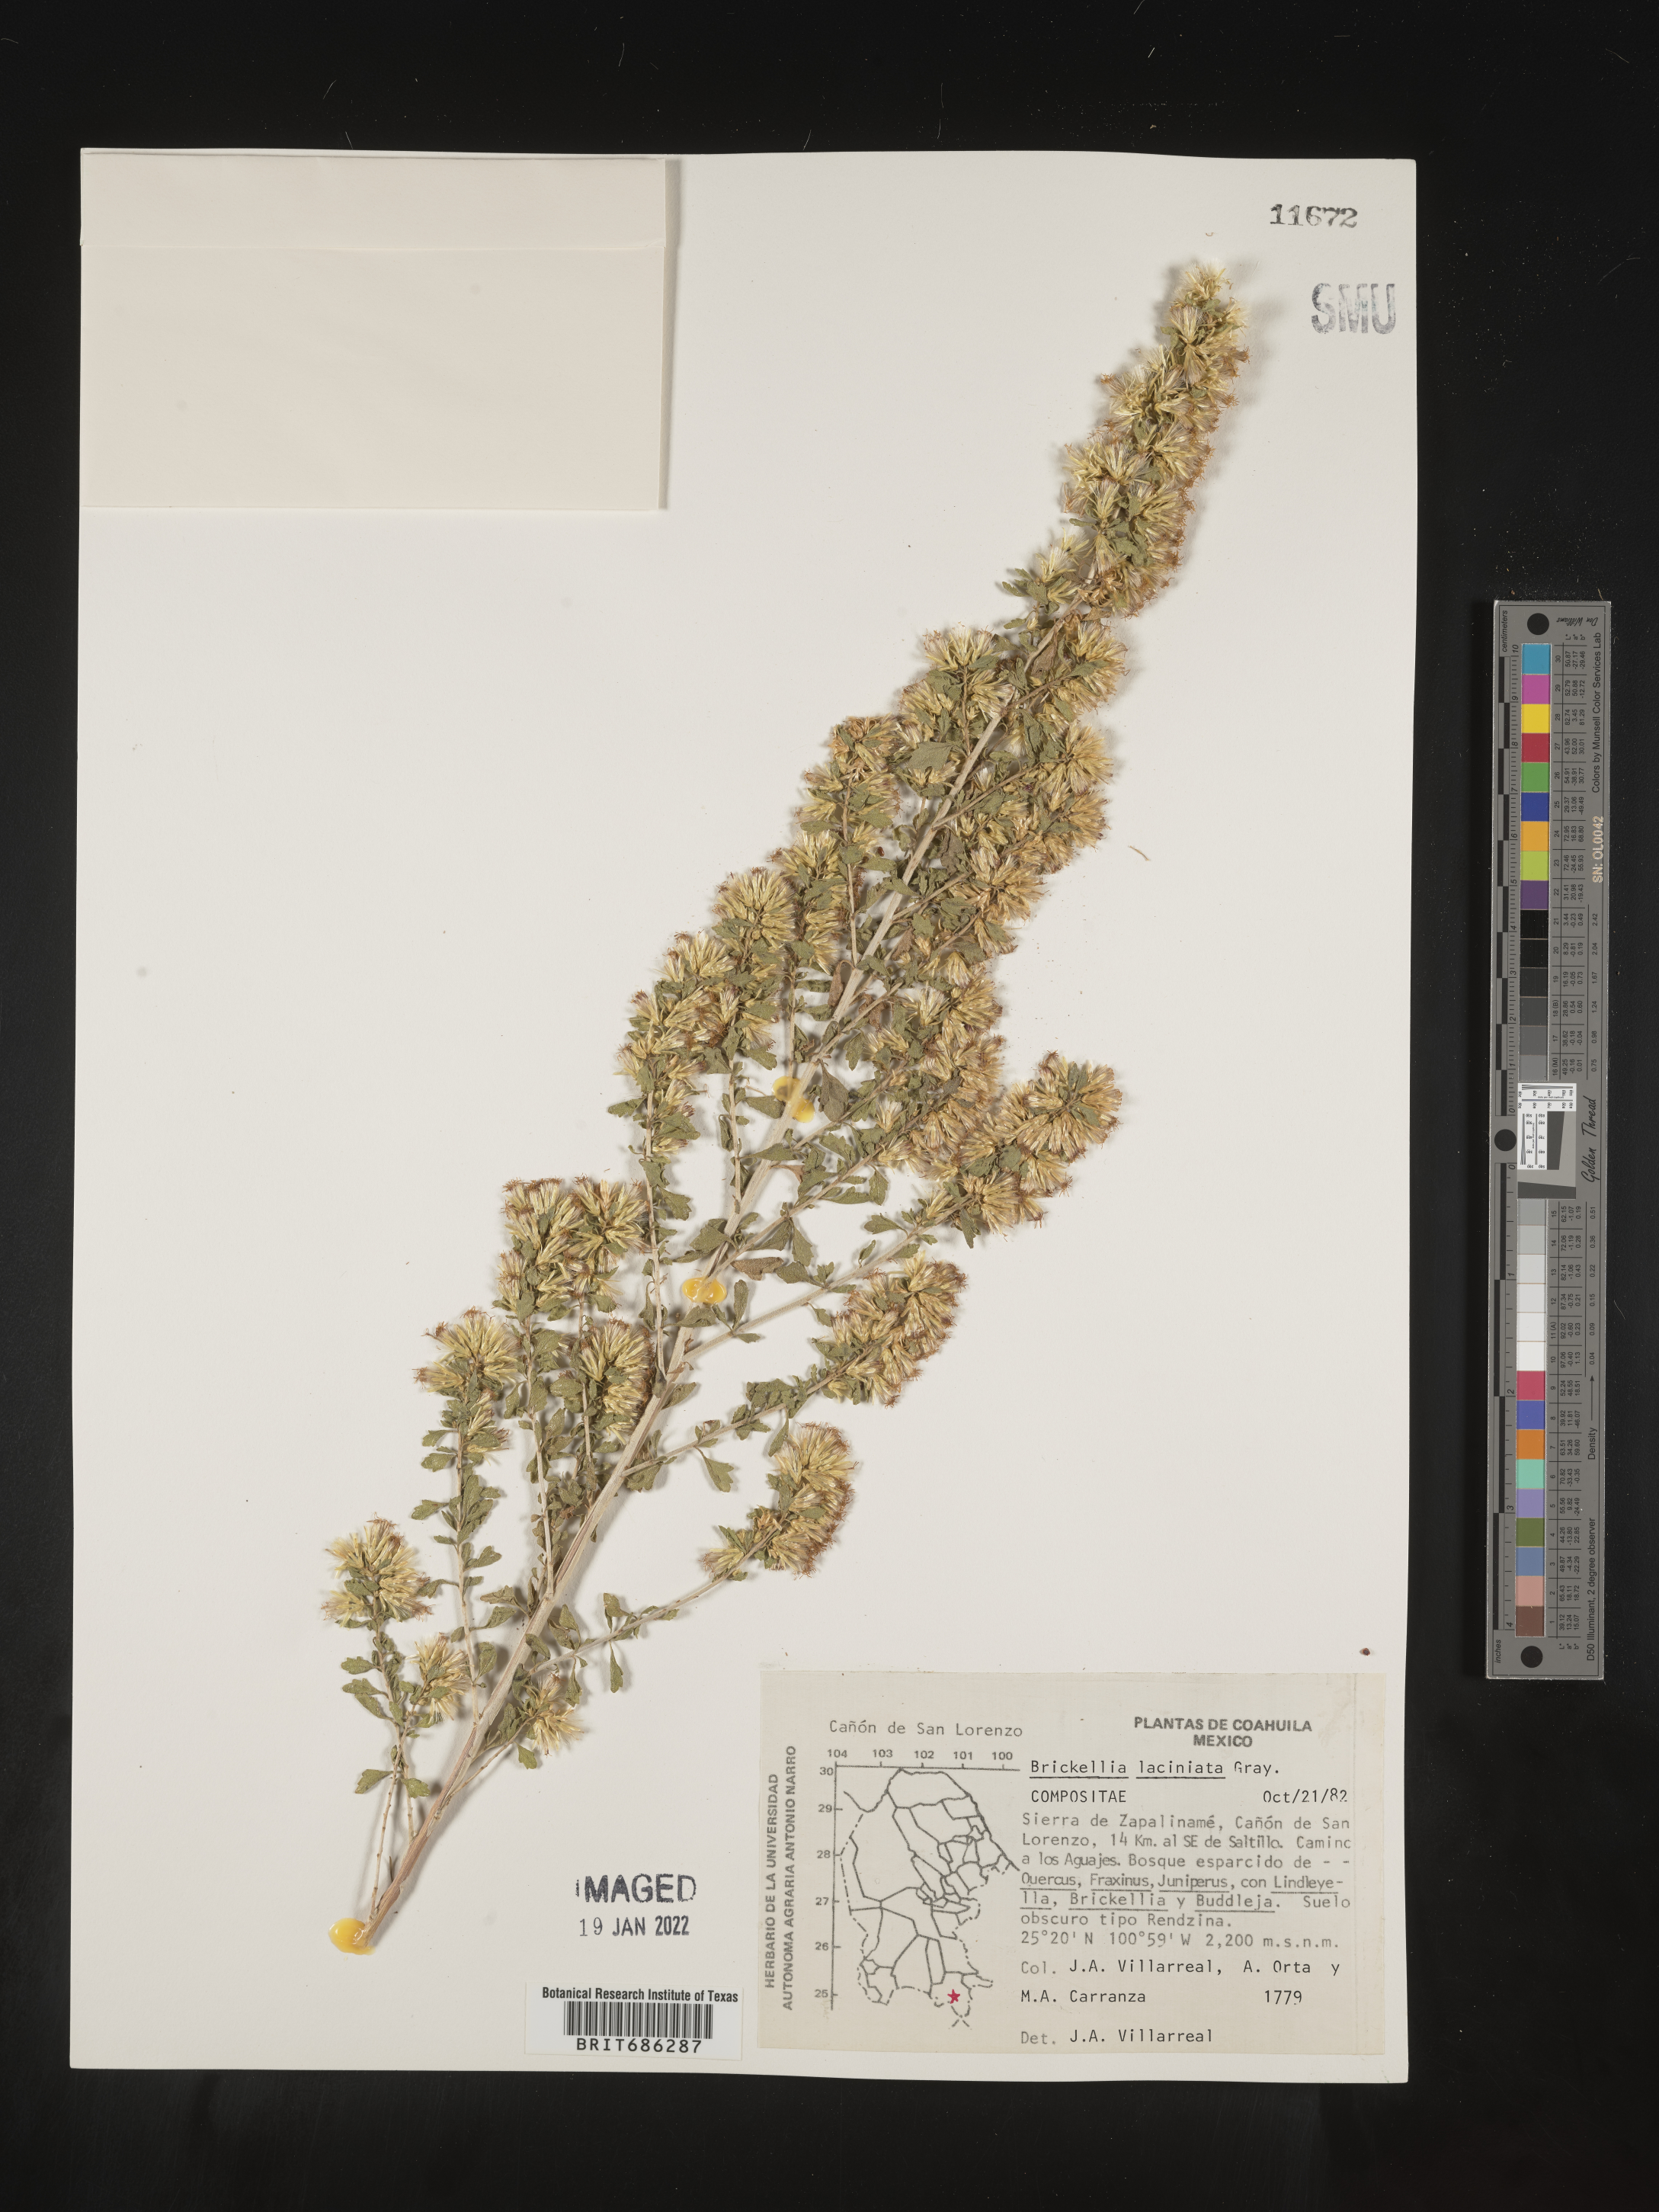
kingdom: Plantae
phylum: Tracheophyta
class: Magnoliopsida
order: Asterales
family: Asteraceae
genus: Brickellia
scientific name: Brickellia
